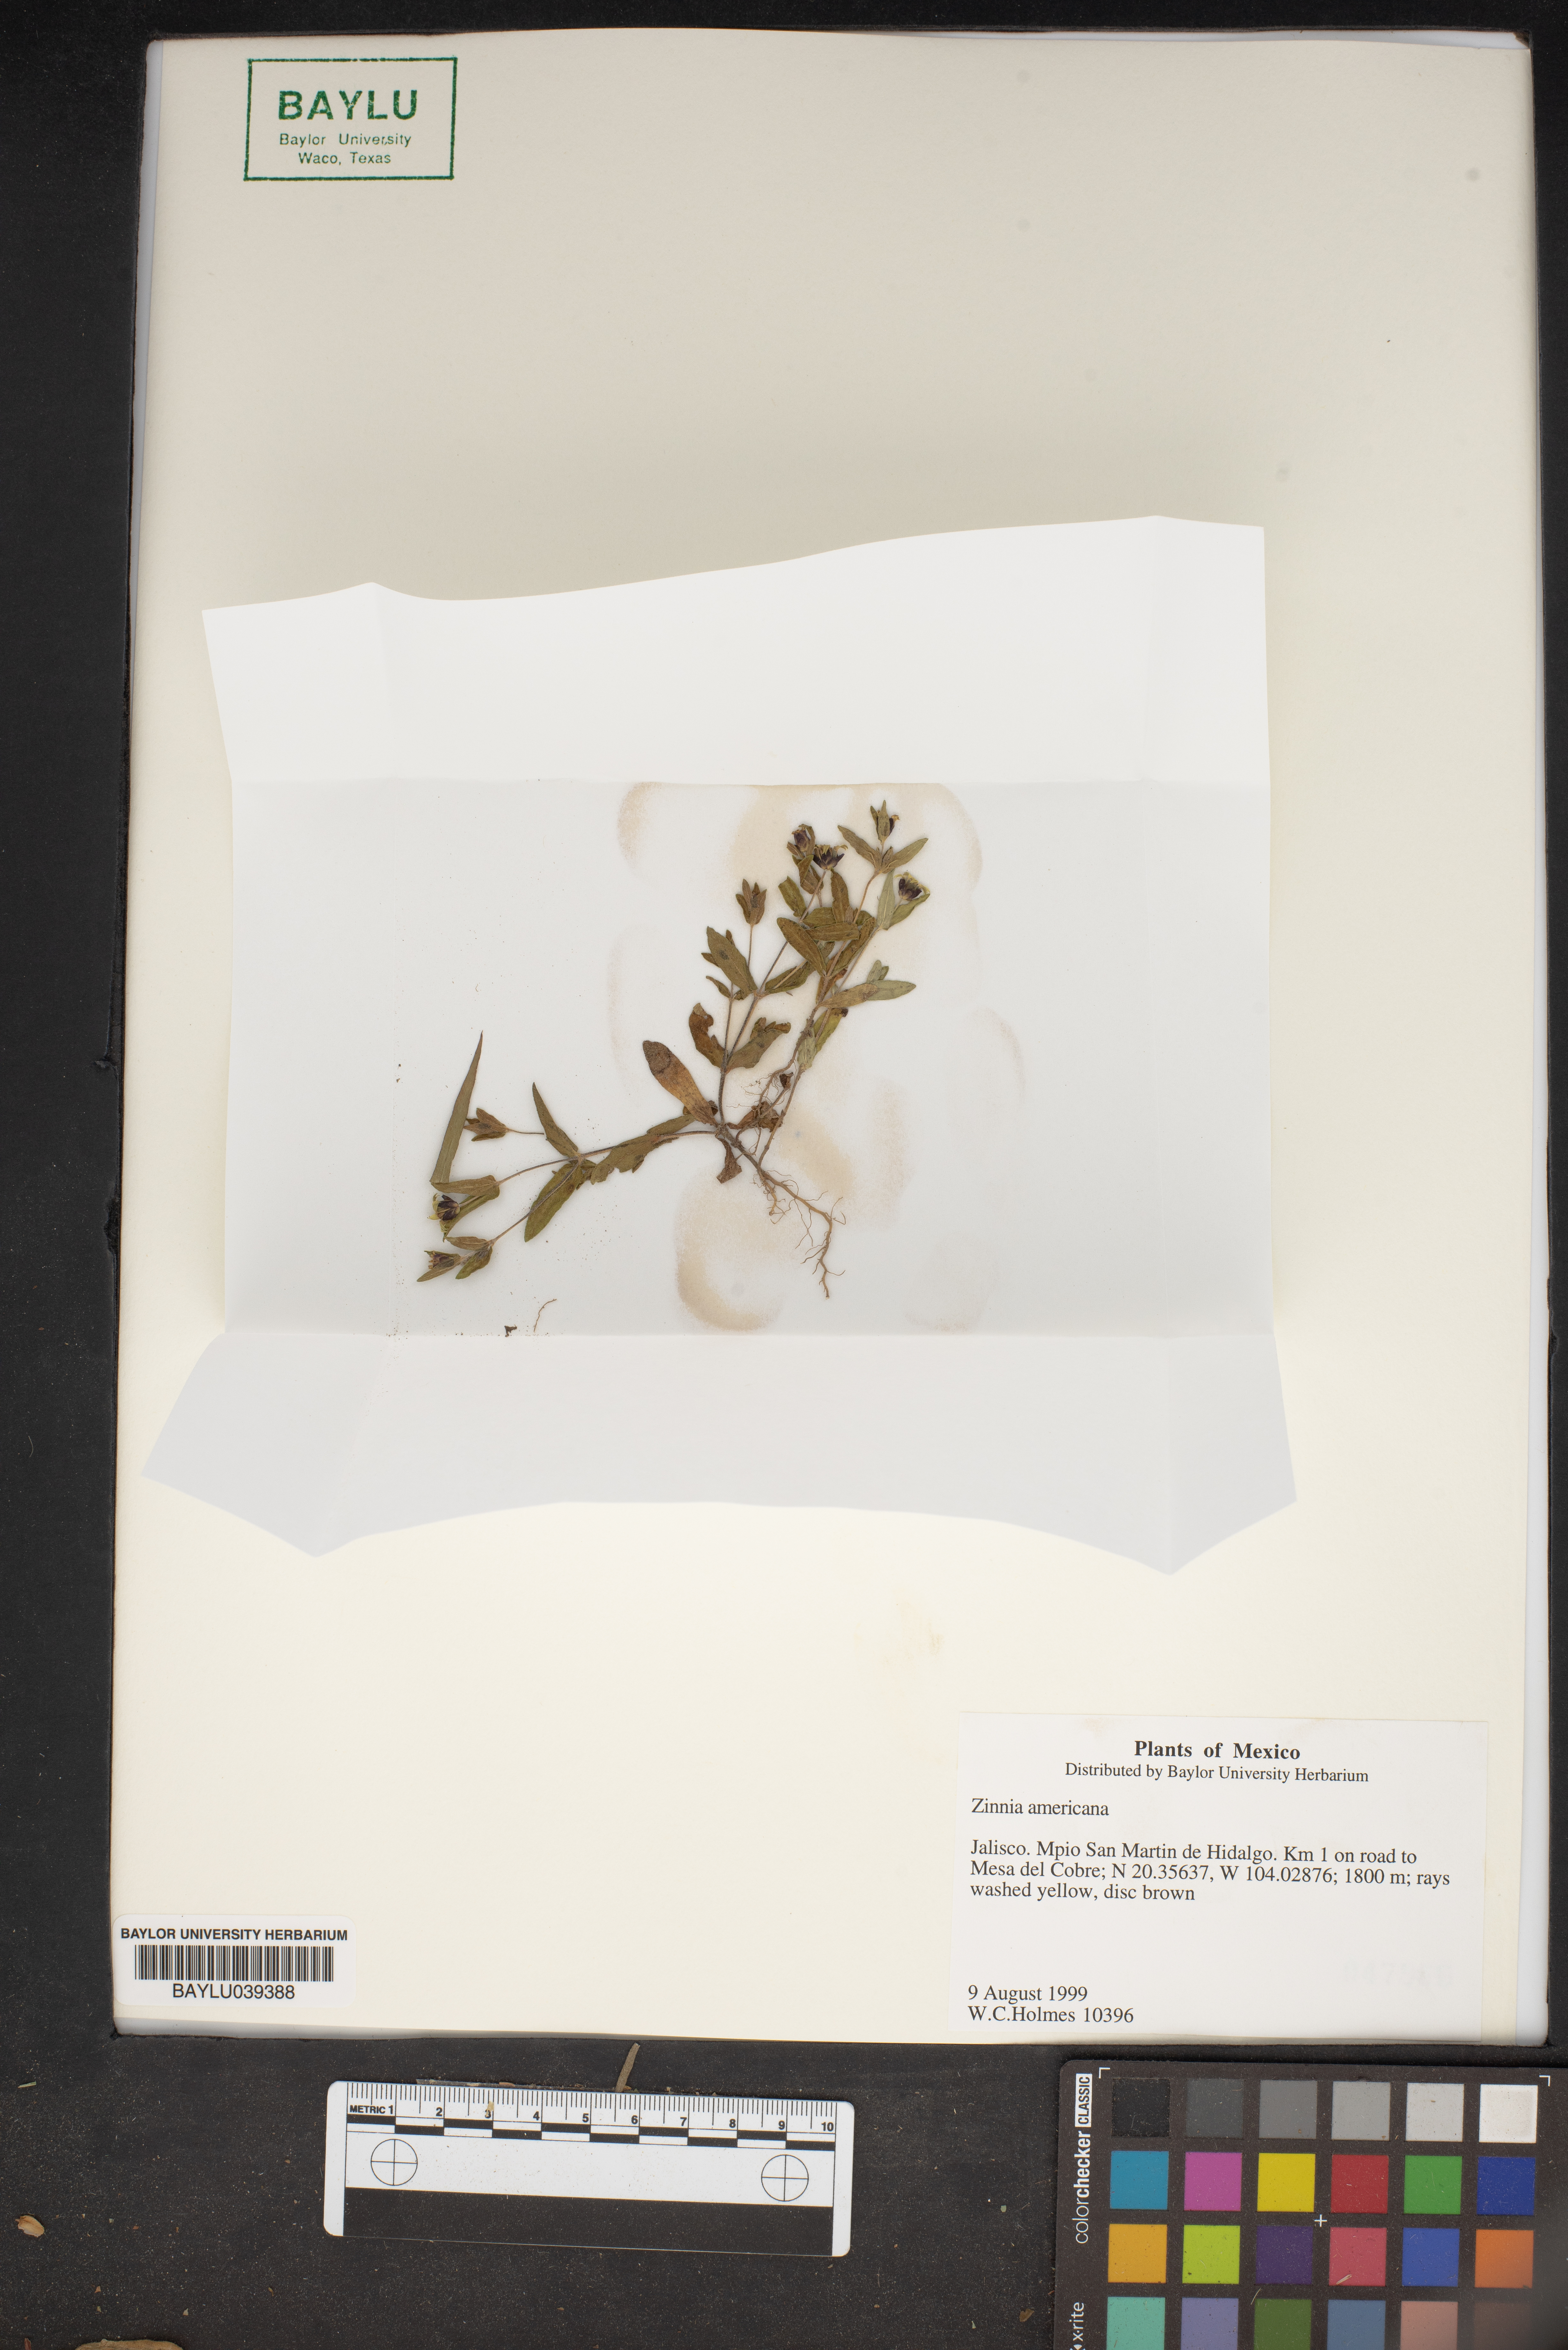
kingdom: Plantae
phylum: Tracheophyta
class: Magnoliopsida
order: Asterales
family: Asteraceae
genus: Zinnia
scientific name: Zinnia americana
